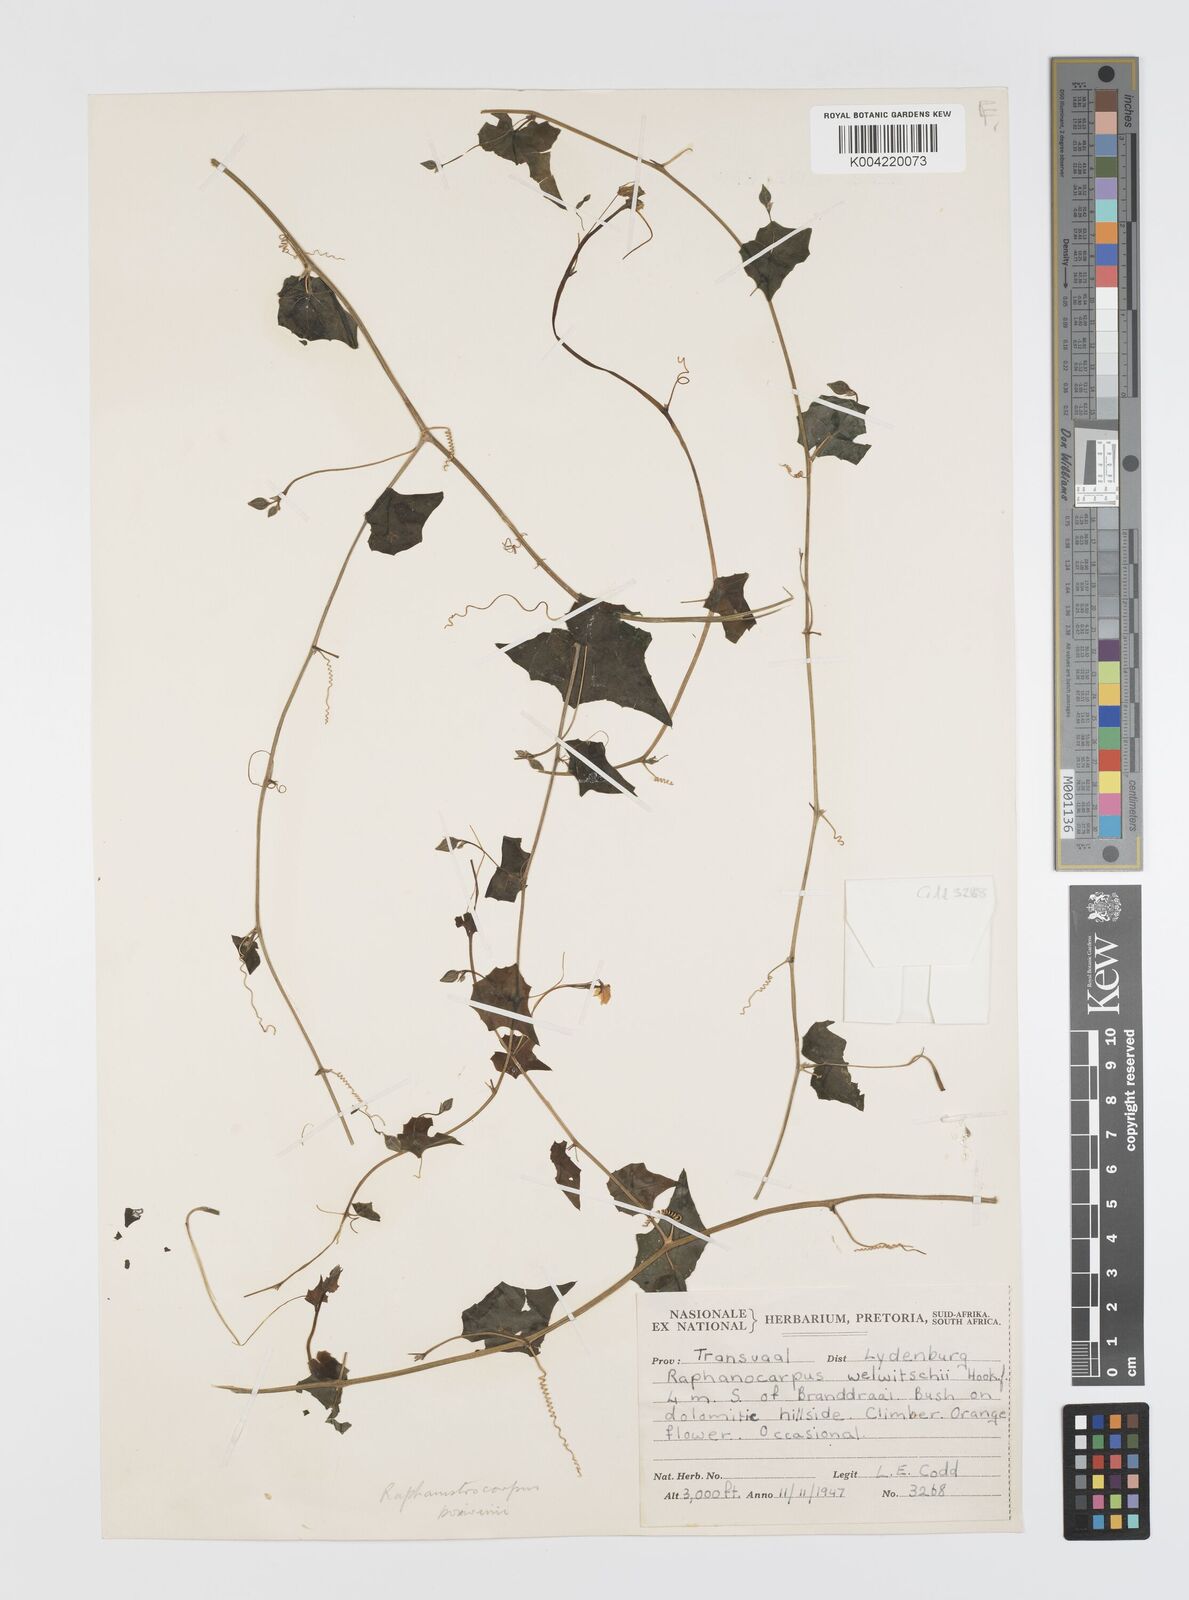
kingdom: Plantae
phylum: Tracheophyta
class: Magnoliopsida
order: Cucurbitales
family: Cucurbitaceae
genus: Momordica
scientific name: Momordica boivinii
